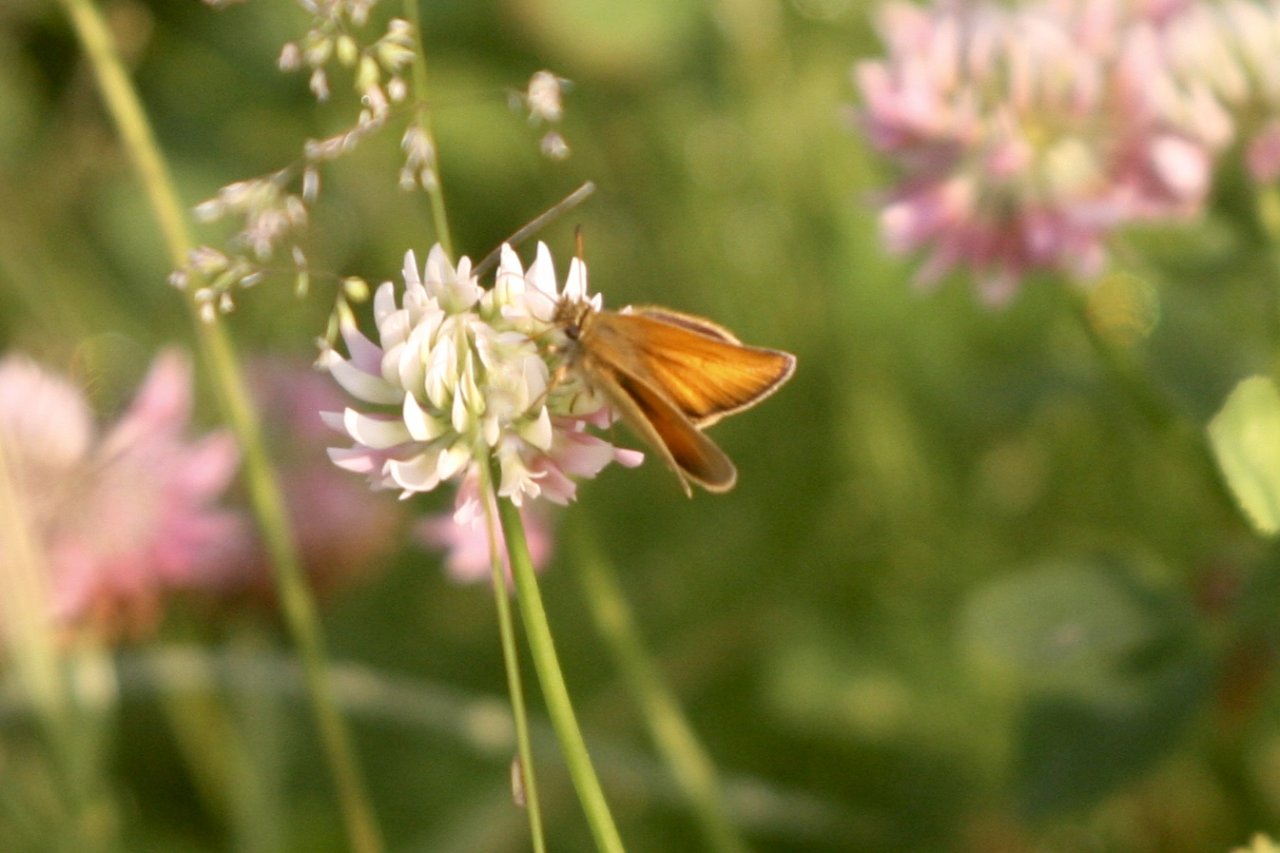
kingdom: Animalia
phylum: Arthropoda
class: Insecta
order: Lepidoptera
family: Hesperiidae
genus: Thymelicus
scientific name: Thymelicus lineola
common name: European Skipper
